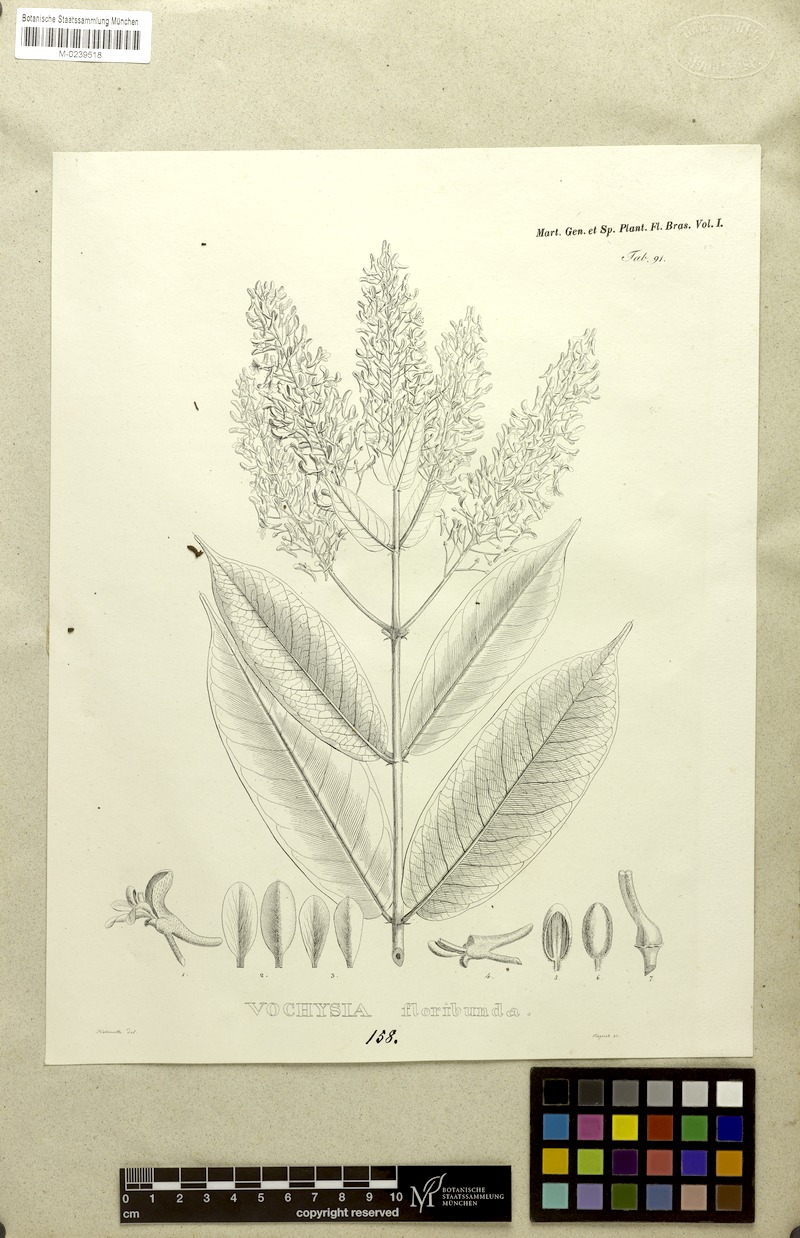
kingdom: Plantae
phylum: Tracheophyta
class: Magnoliopsida
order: Myrtales
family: Vochysiaceae
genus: Vochysia
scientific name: Vochysia floribunda
